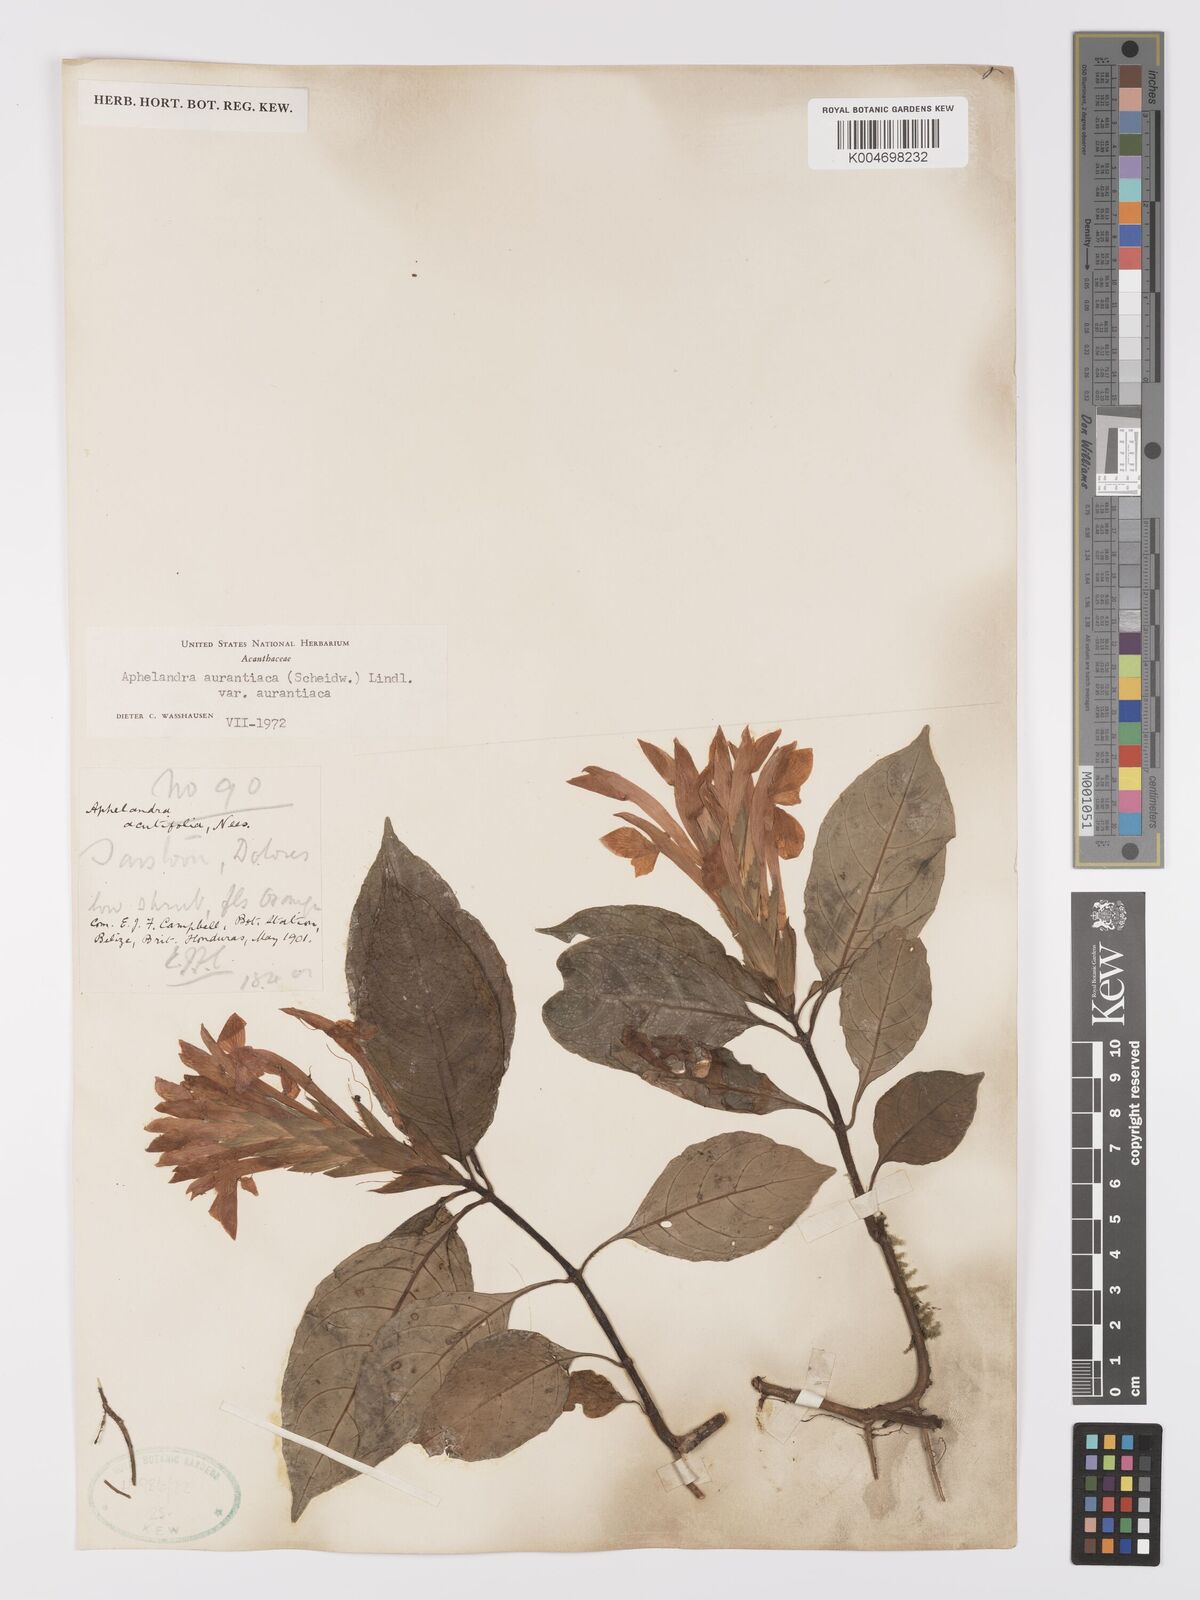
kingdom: Plantae
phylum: Tracheophyta
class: Magnoliopsida
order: Lamiales
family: Acanthaceae
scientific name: Acanthaceae
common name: Acanthaceae
